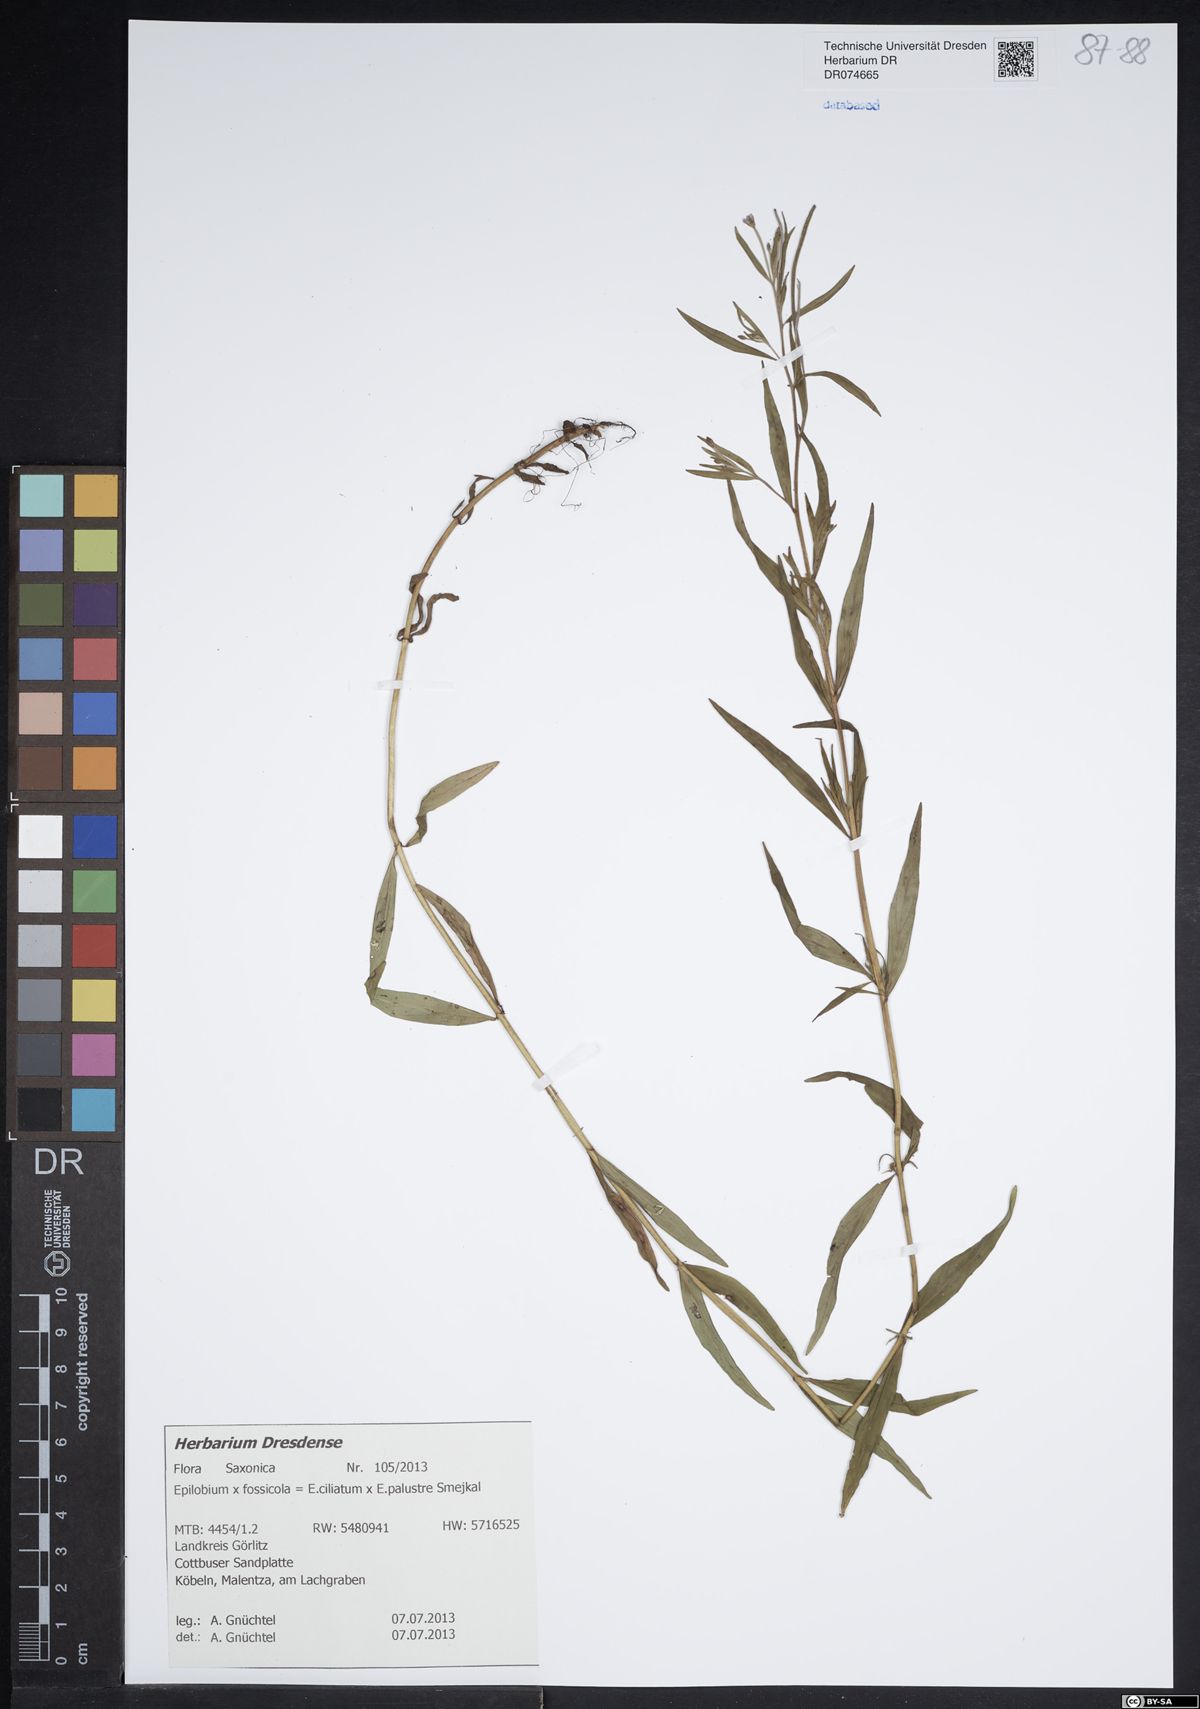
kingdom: Plantae
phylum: Tracheophyta
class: Magnoliopsida
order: Myrtales
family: Onagraceae
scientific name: Onagraceae
